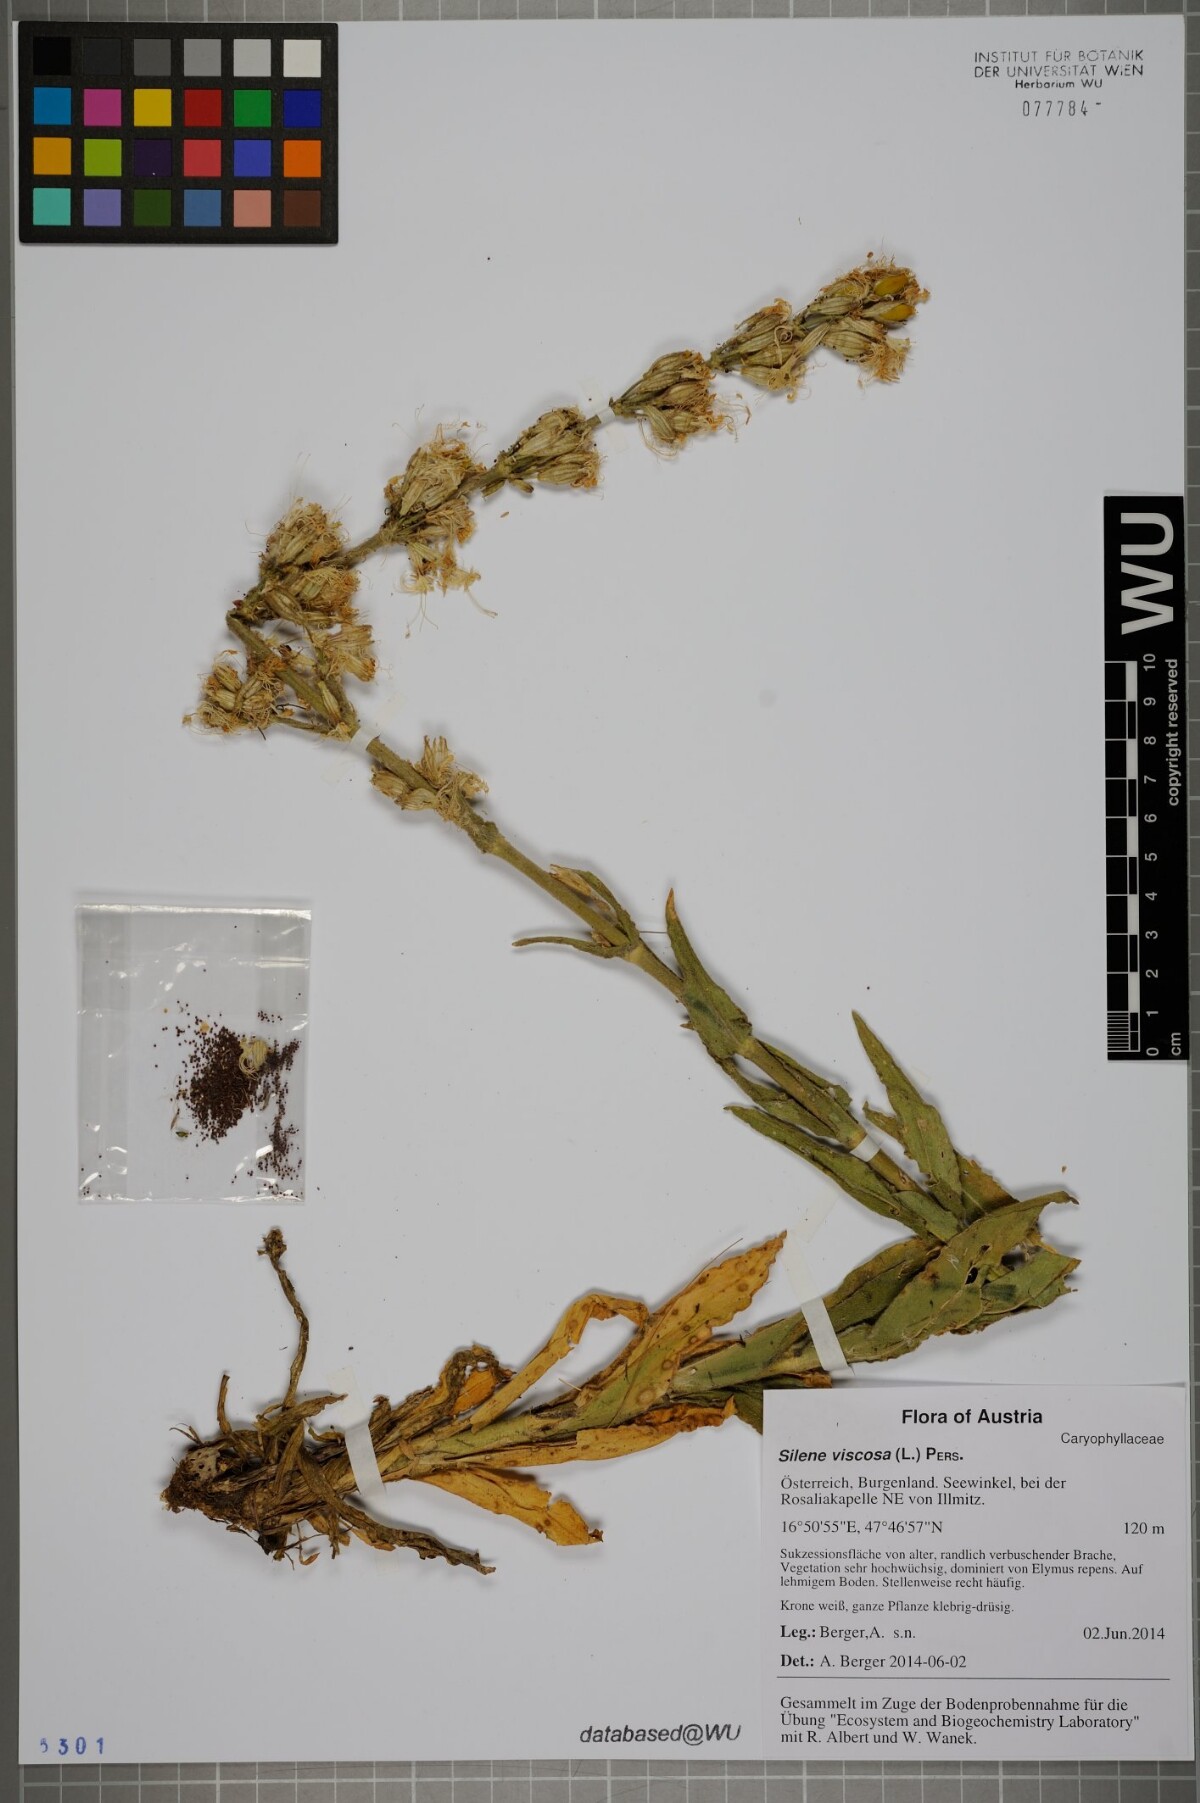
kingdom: Plantae
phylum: Tracheophyta
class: Magnoliopsida
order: Caryophyllales
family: Caryophyllaceae
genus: Silene
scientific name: Silene viscosa
